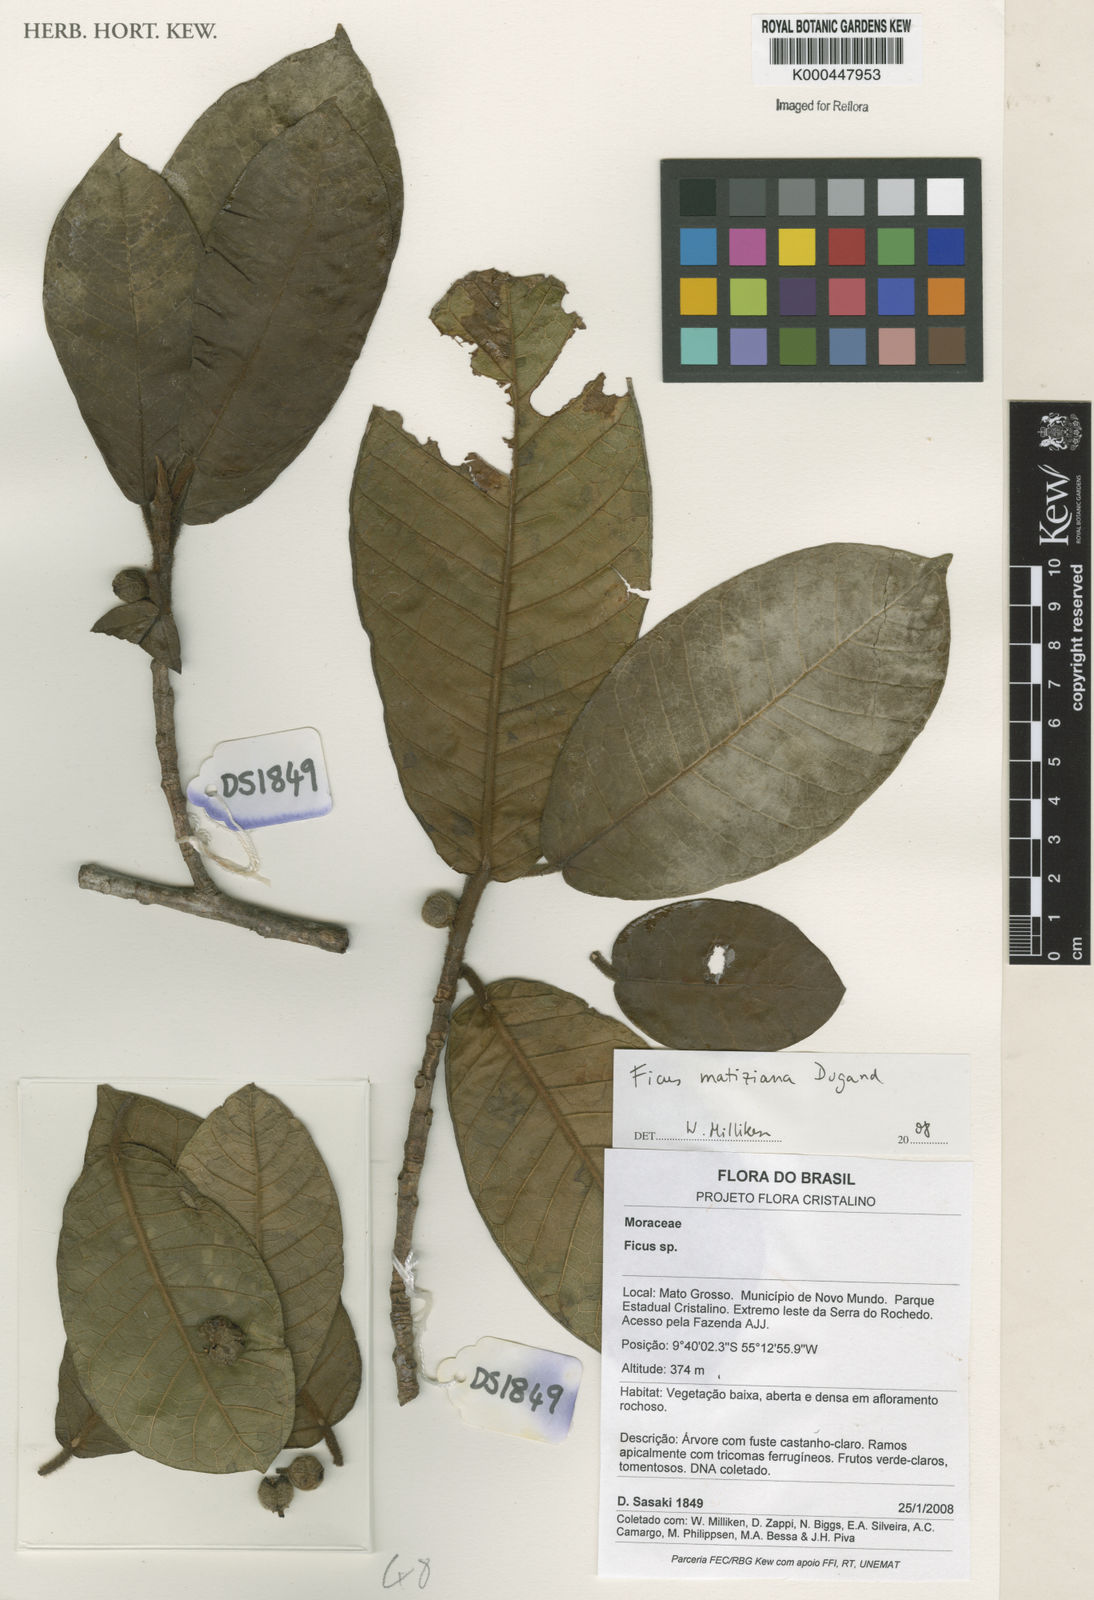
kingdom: Plantae
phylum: Tracheophyta
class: Magnoliopsida
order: Rosales
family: Moraceae
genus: Ficus
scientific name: Ficus matiziana
